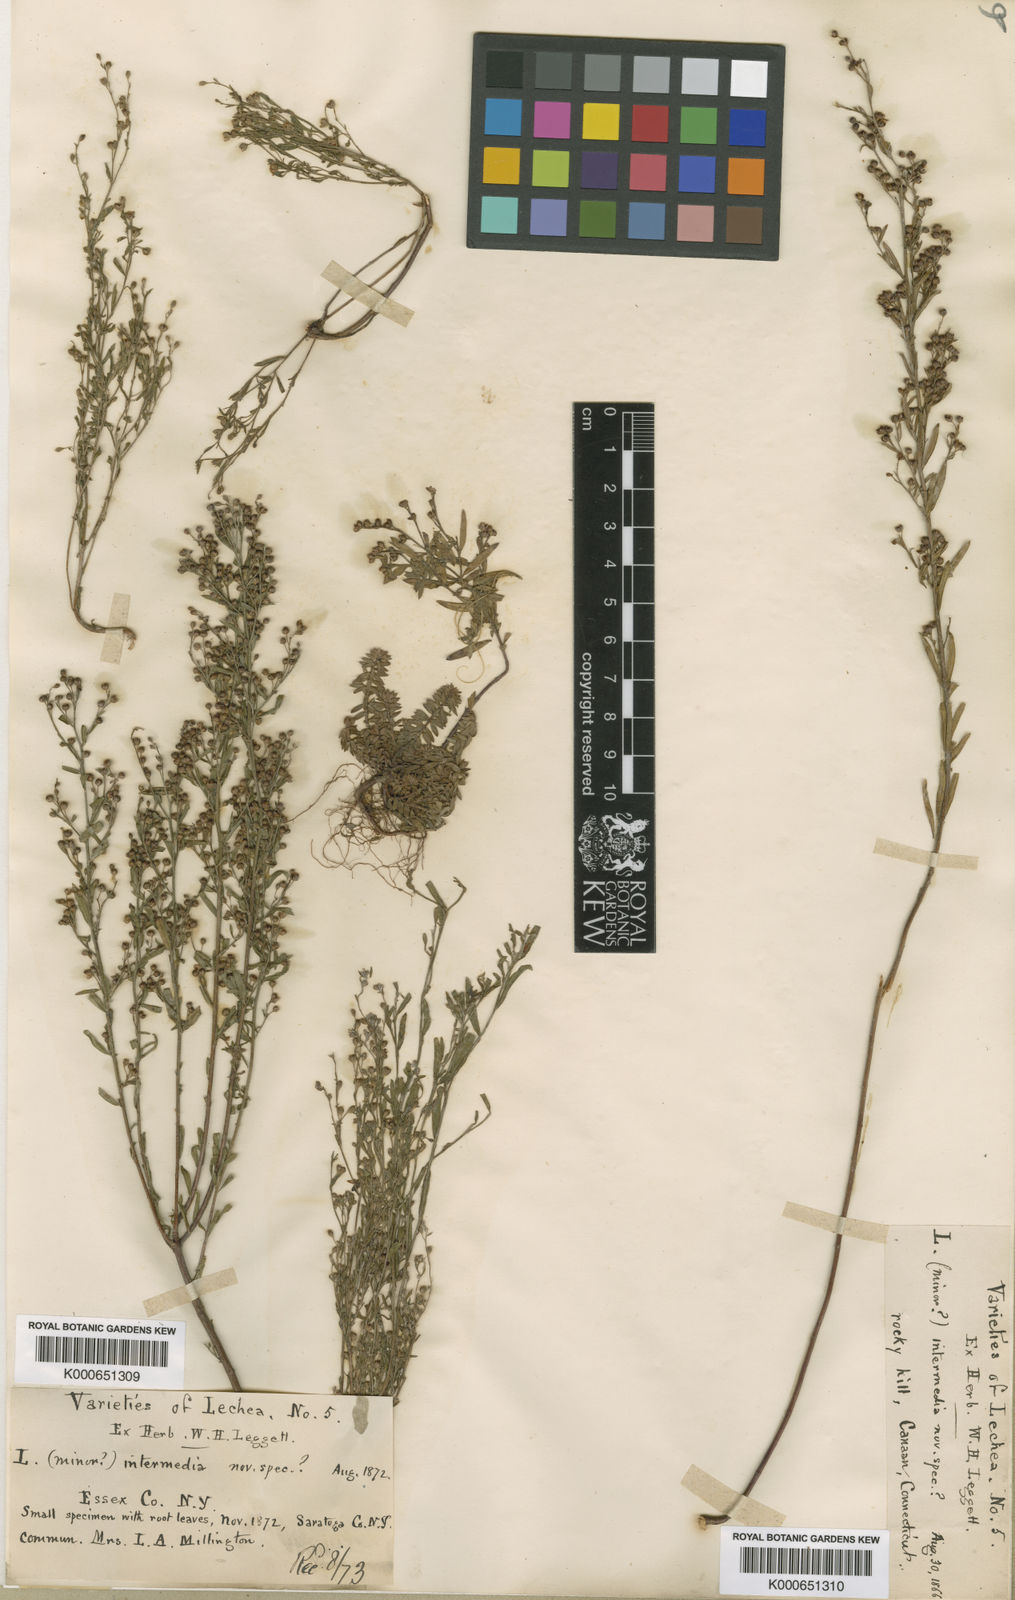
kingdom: Plantae
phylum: Tracheophyta
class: Magnoliopsida
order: Malvales
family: Cistaceae
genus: Lechea
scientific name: Lechea
